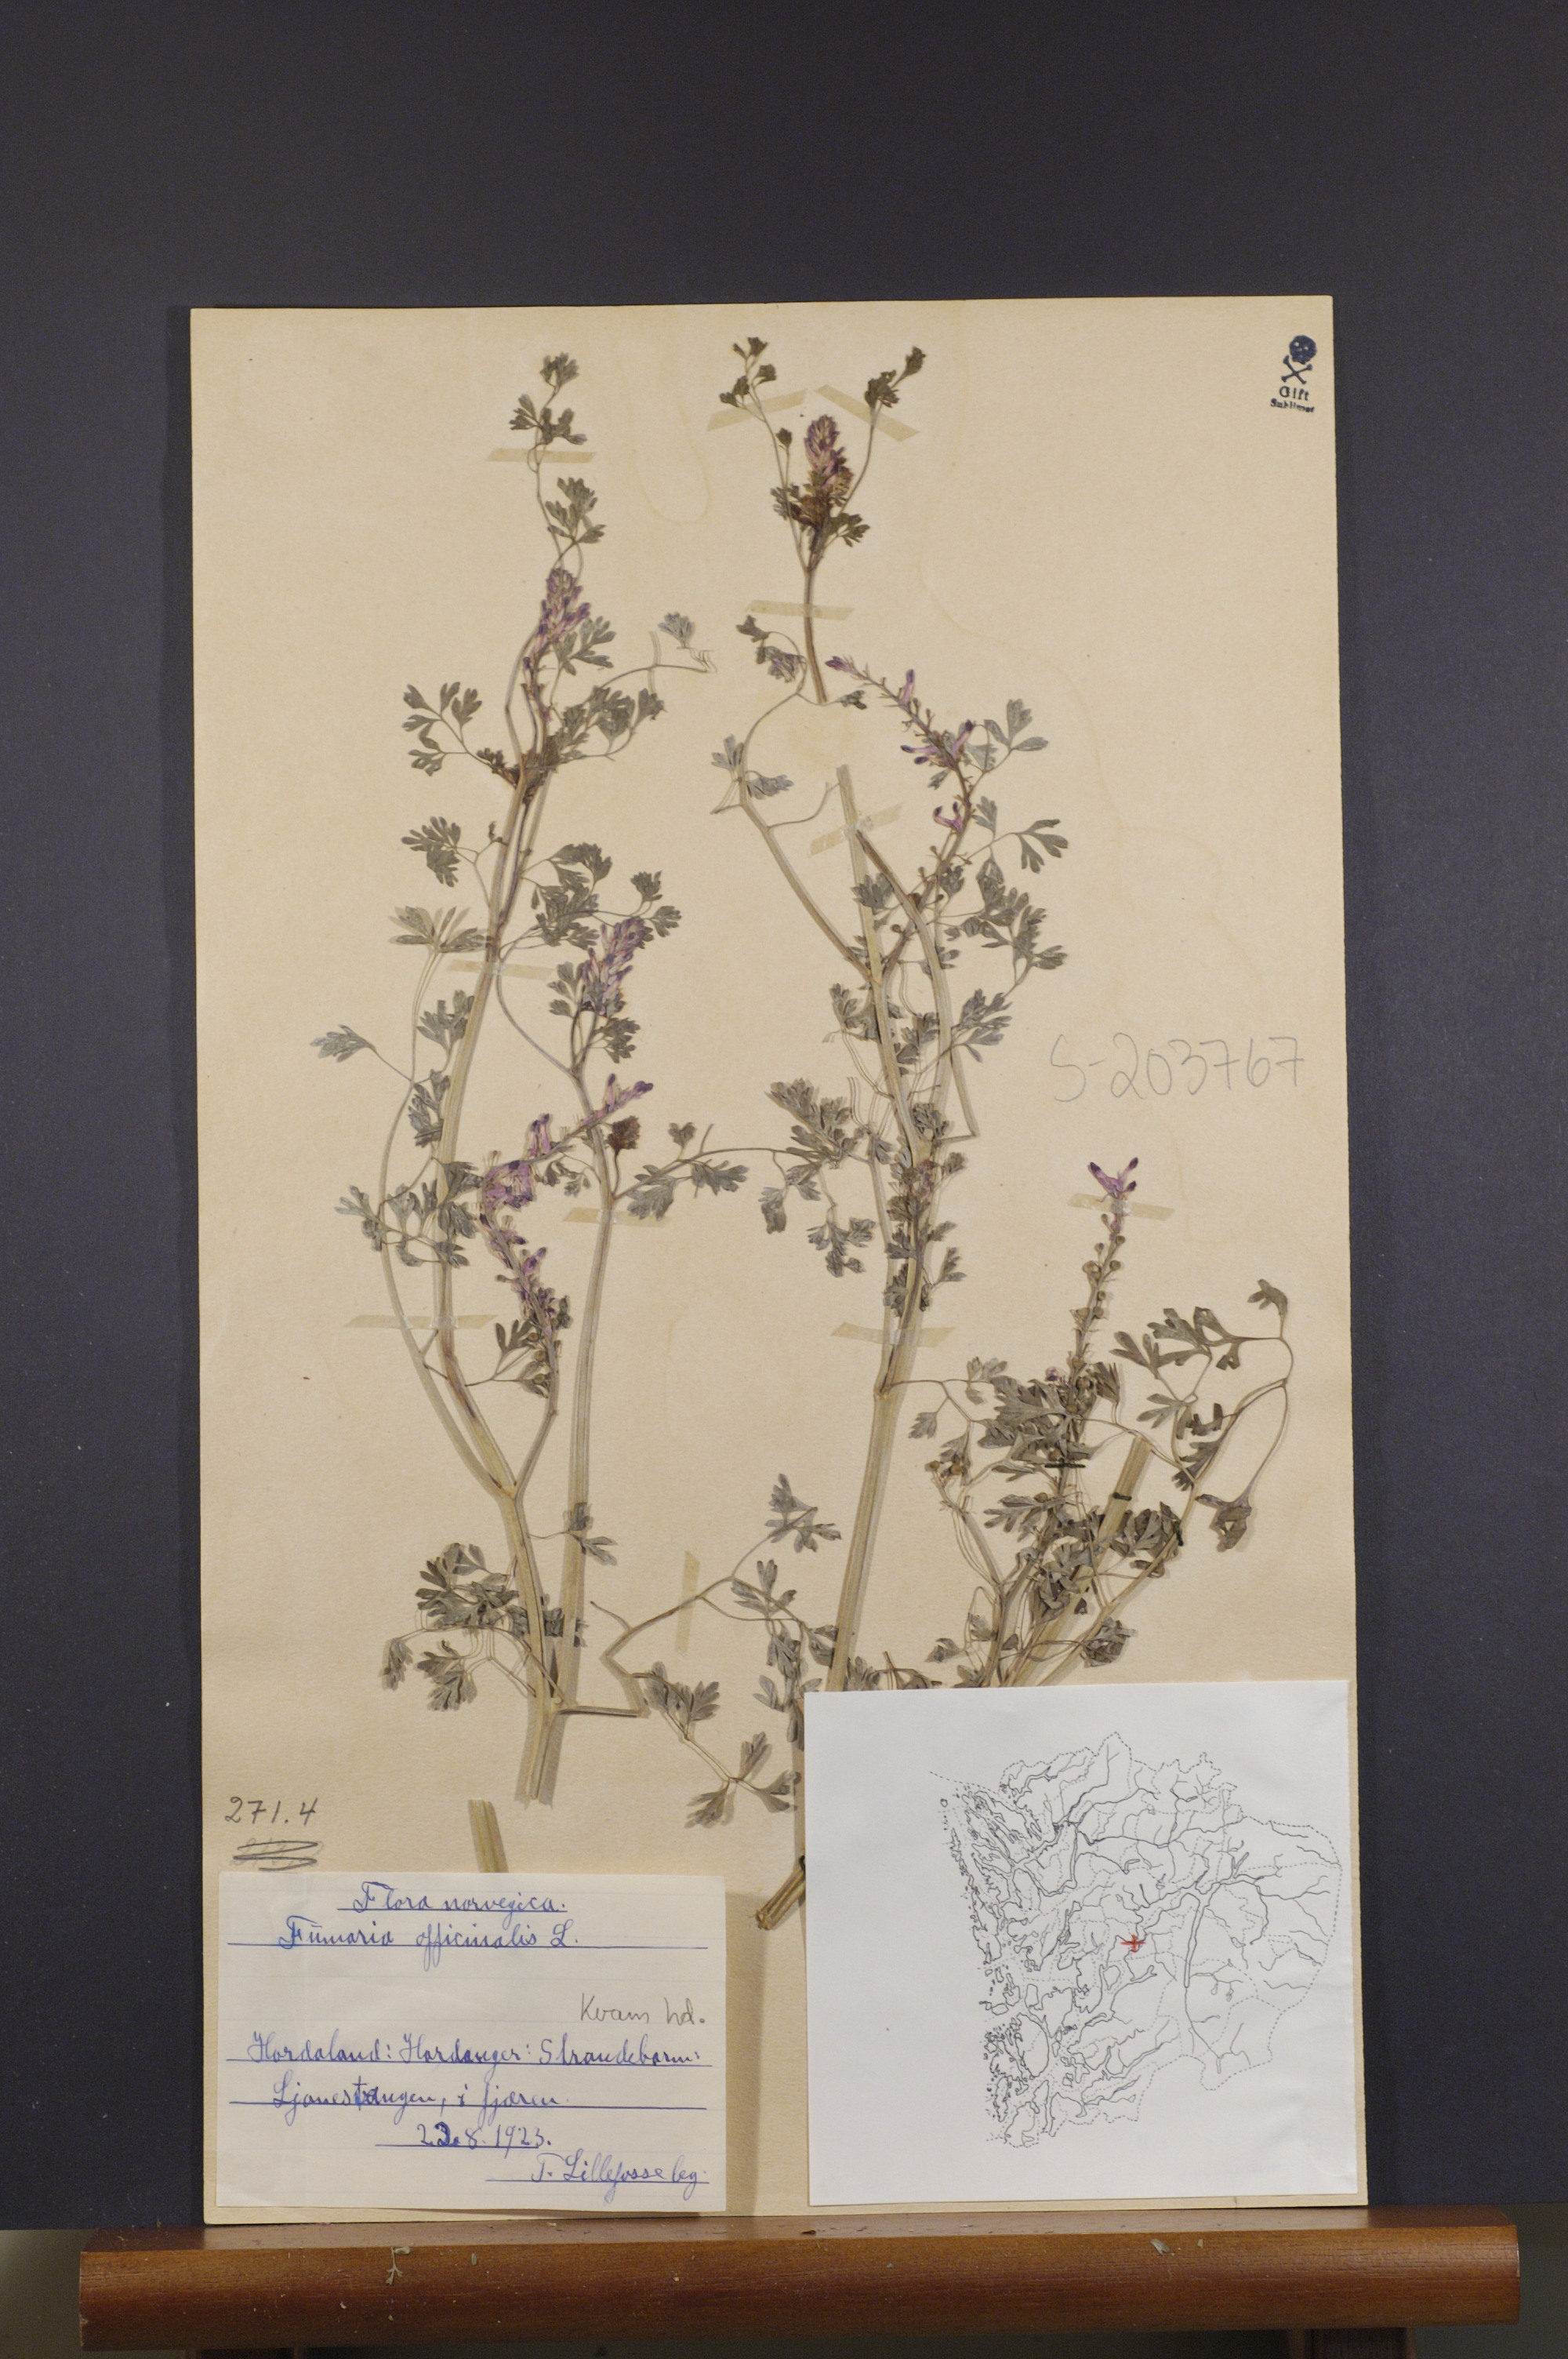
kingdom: Plantae
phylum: Tracheophyta
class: Magnoliopsida
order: Ranunculales
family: Papaveraceae
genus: Fumaria
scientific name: Fumaria officinalis
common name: Common fumitory
